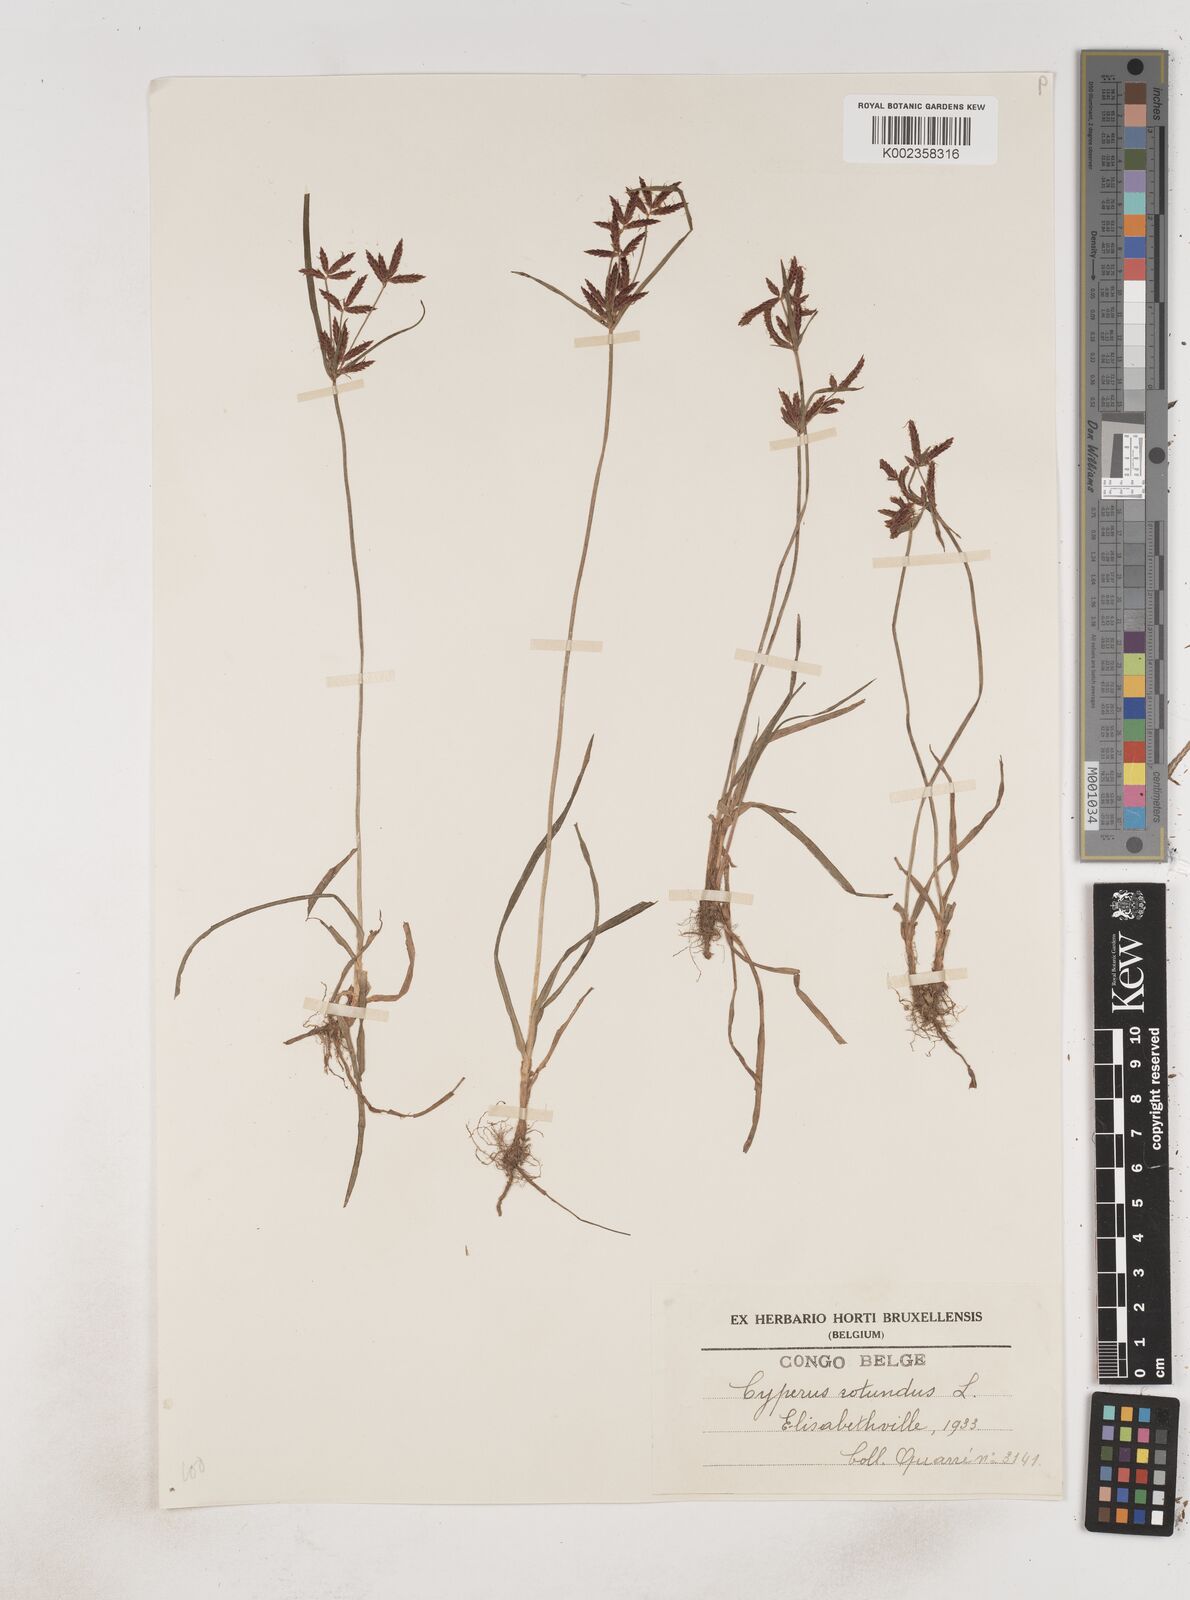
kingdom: Plantae
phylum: Tracheophyta
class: Liliopsida
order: Poales
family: Cyperaceae
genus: Cyperus
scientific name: Cyperus rotundus
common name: Nutgrass
